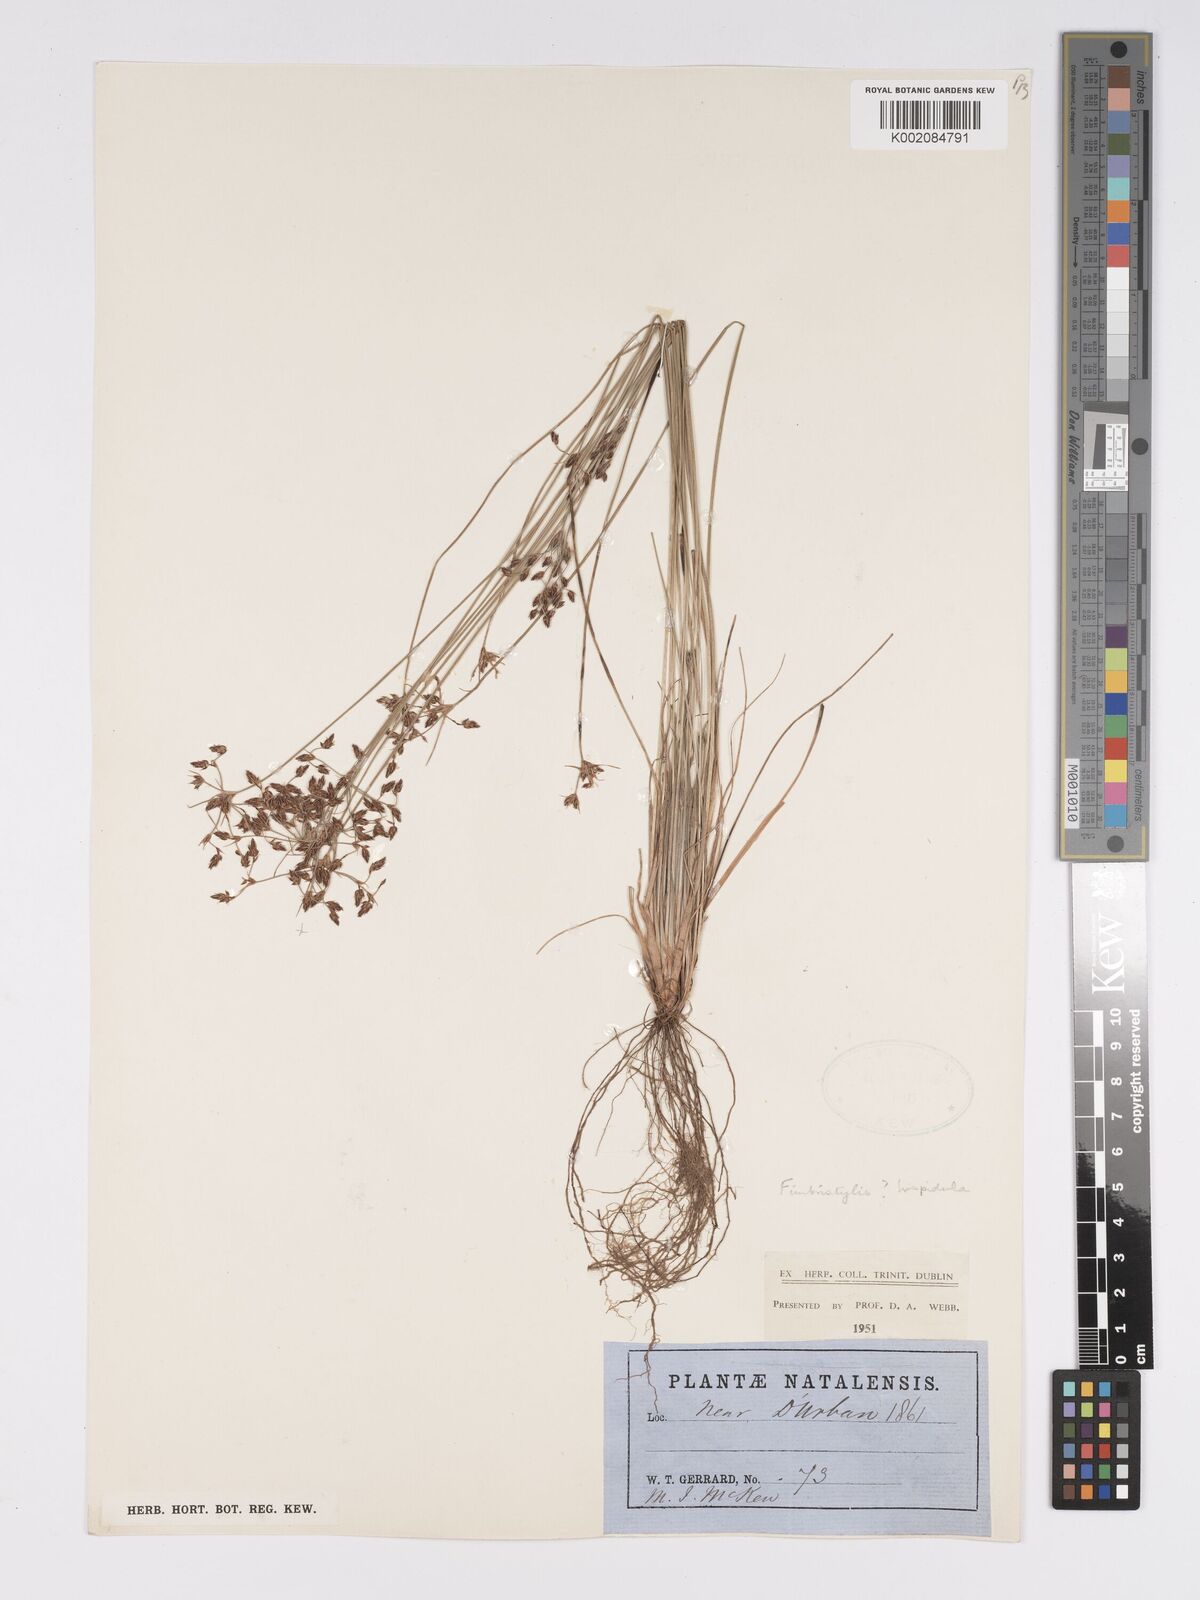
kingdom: Plantae
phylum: Tracheophyta
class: Liliopsida
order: Poales
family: Cyperaceae
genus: Bulbostylis
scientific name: Bulbostylis
